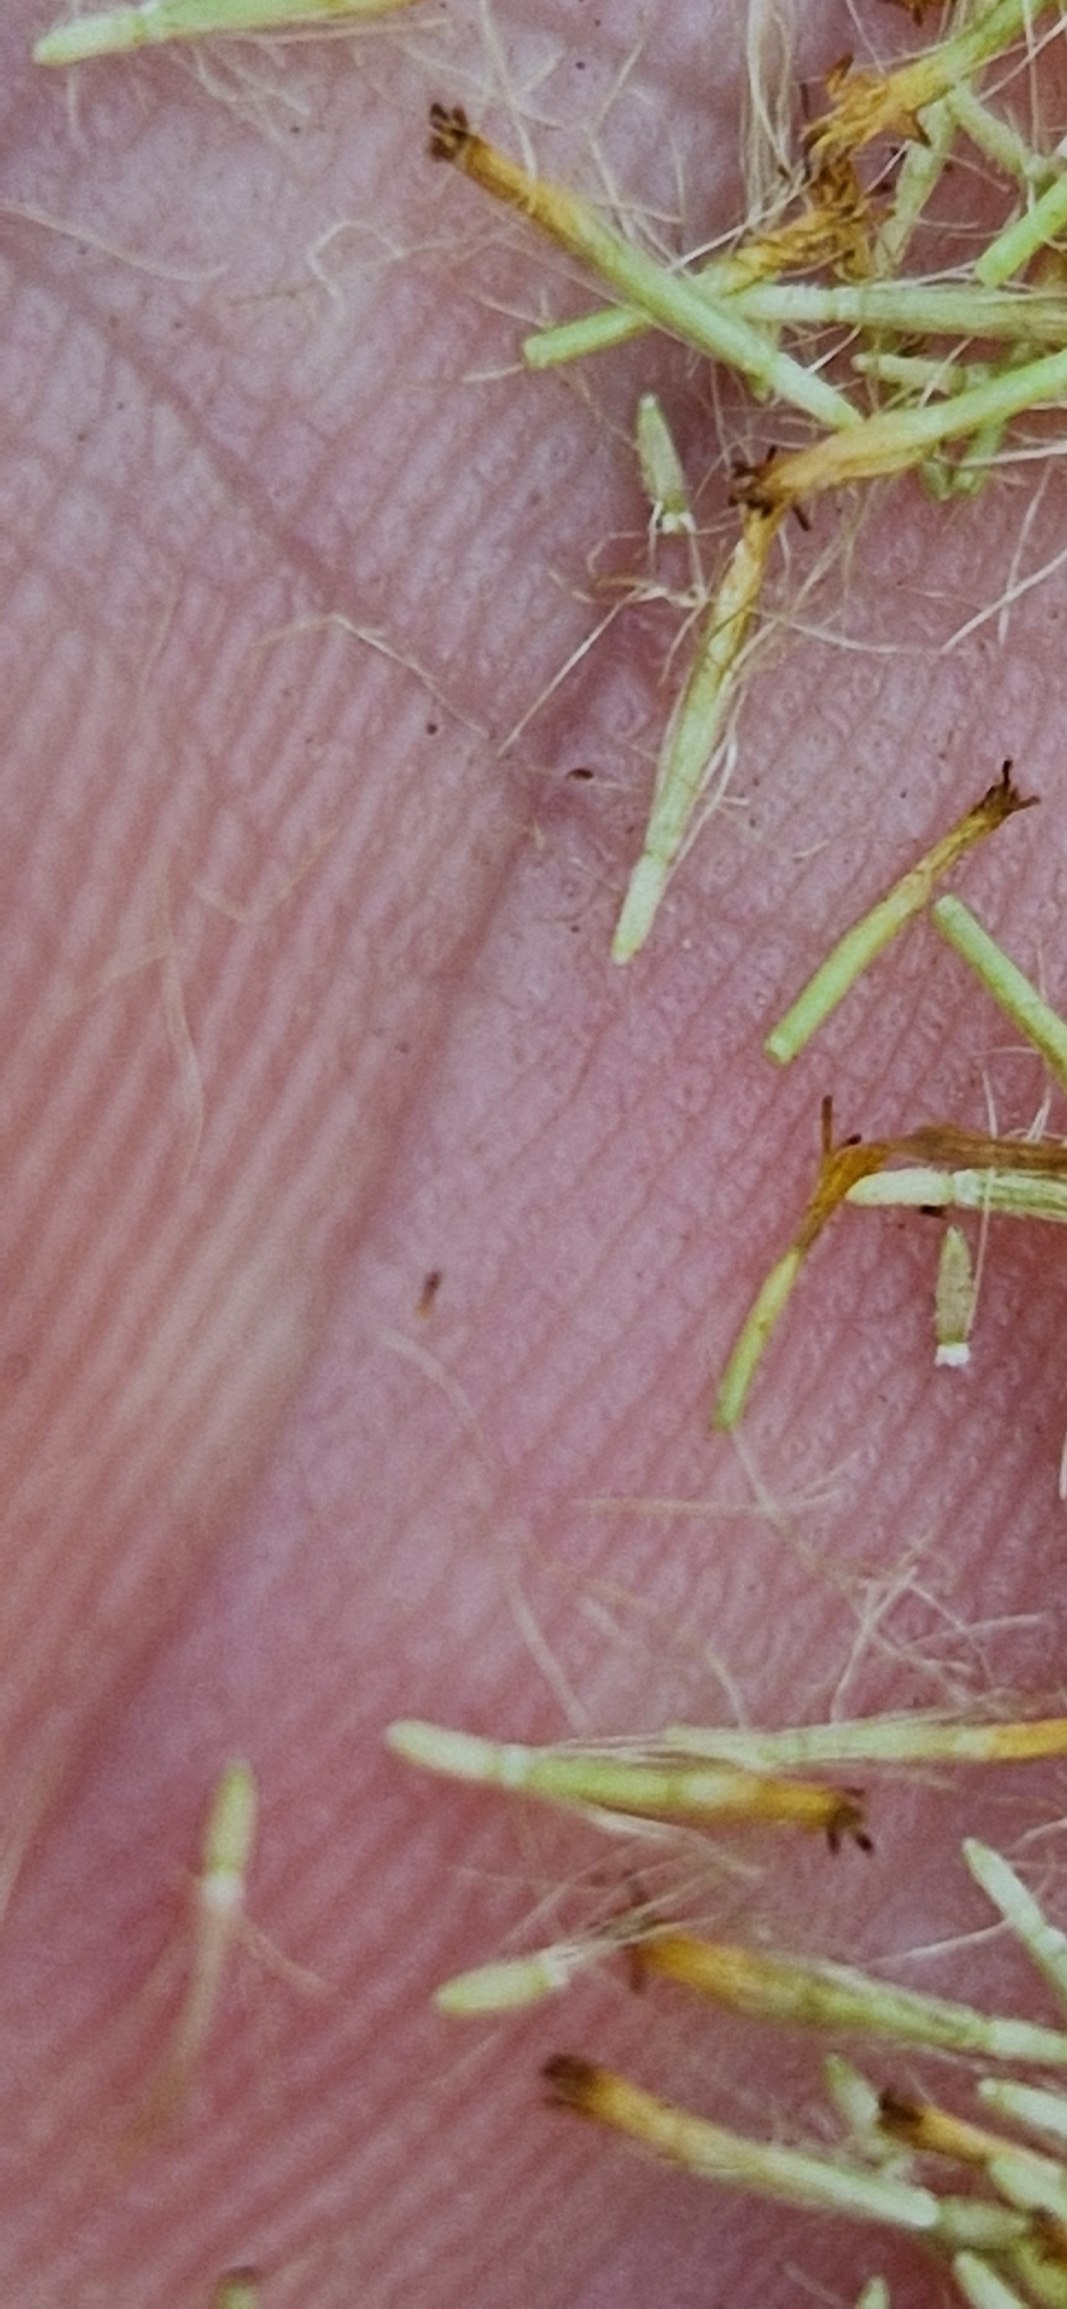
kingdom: Plantae
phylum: Tracheophyta
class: Magnoliopsida
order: Asterales
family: Asteraceae
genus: Pulicaria
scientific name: Pulicaria dysenterica
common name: Strand-loppeurt
